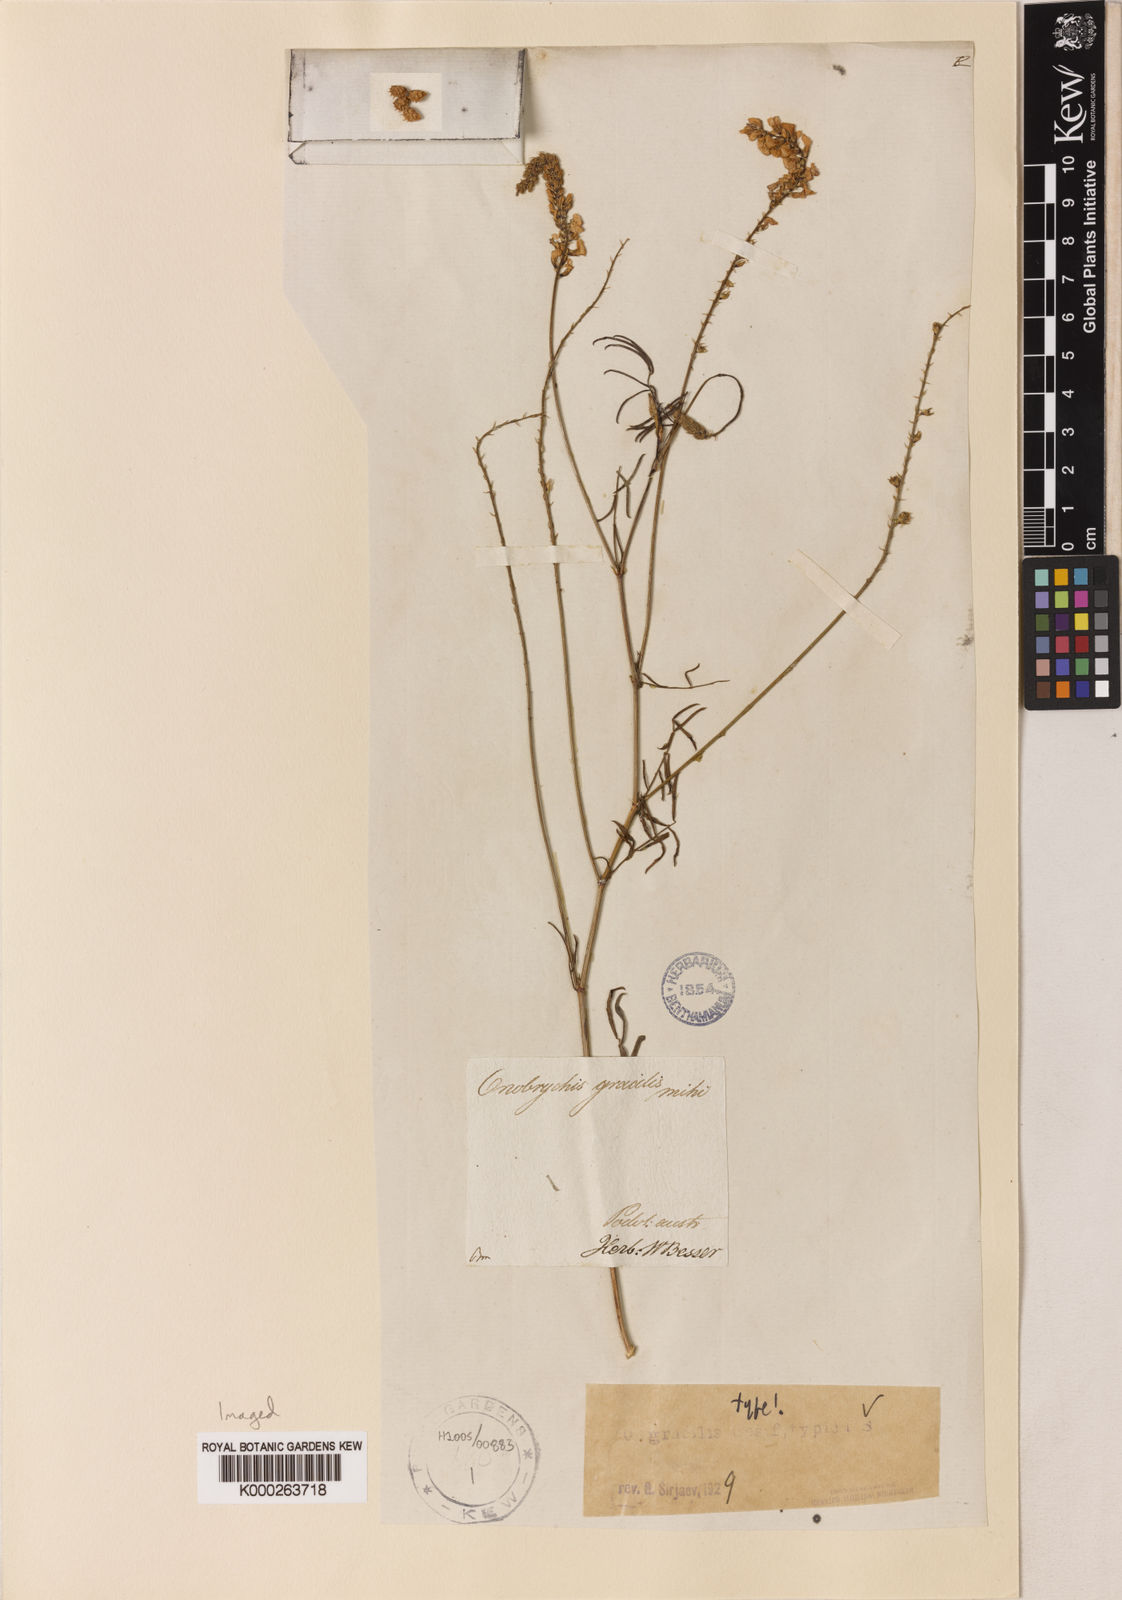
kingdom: Plantae
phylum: Tracheophyta
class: Magnoliopsida
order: Fabales
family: Fabaceae
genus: Onobrychis
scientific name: Onobrychis gracilis
